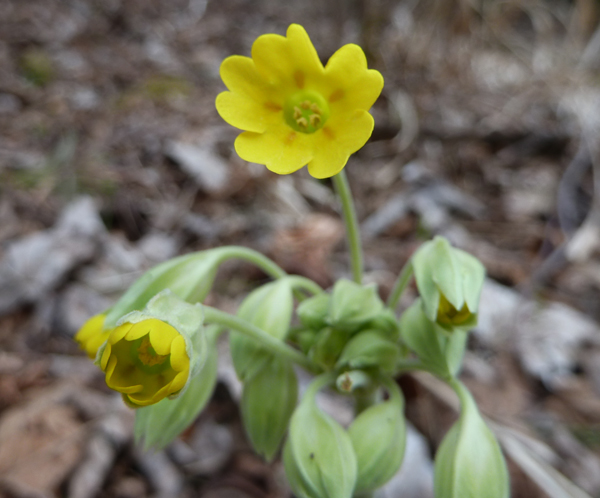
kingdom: Plantae
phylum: Tracheophyta
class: Magnoliopsida
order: Ericales
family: Primulaceae
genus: Primula
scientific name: Primula veris
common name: Cowslip
